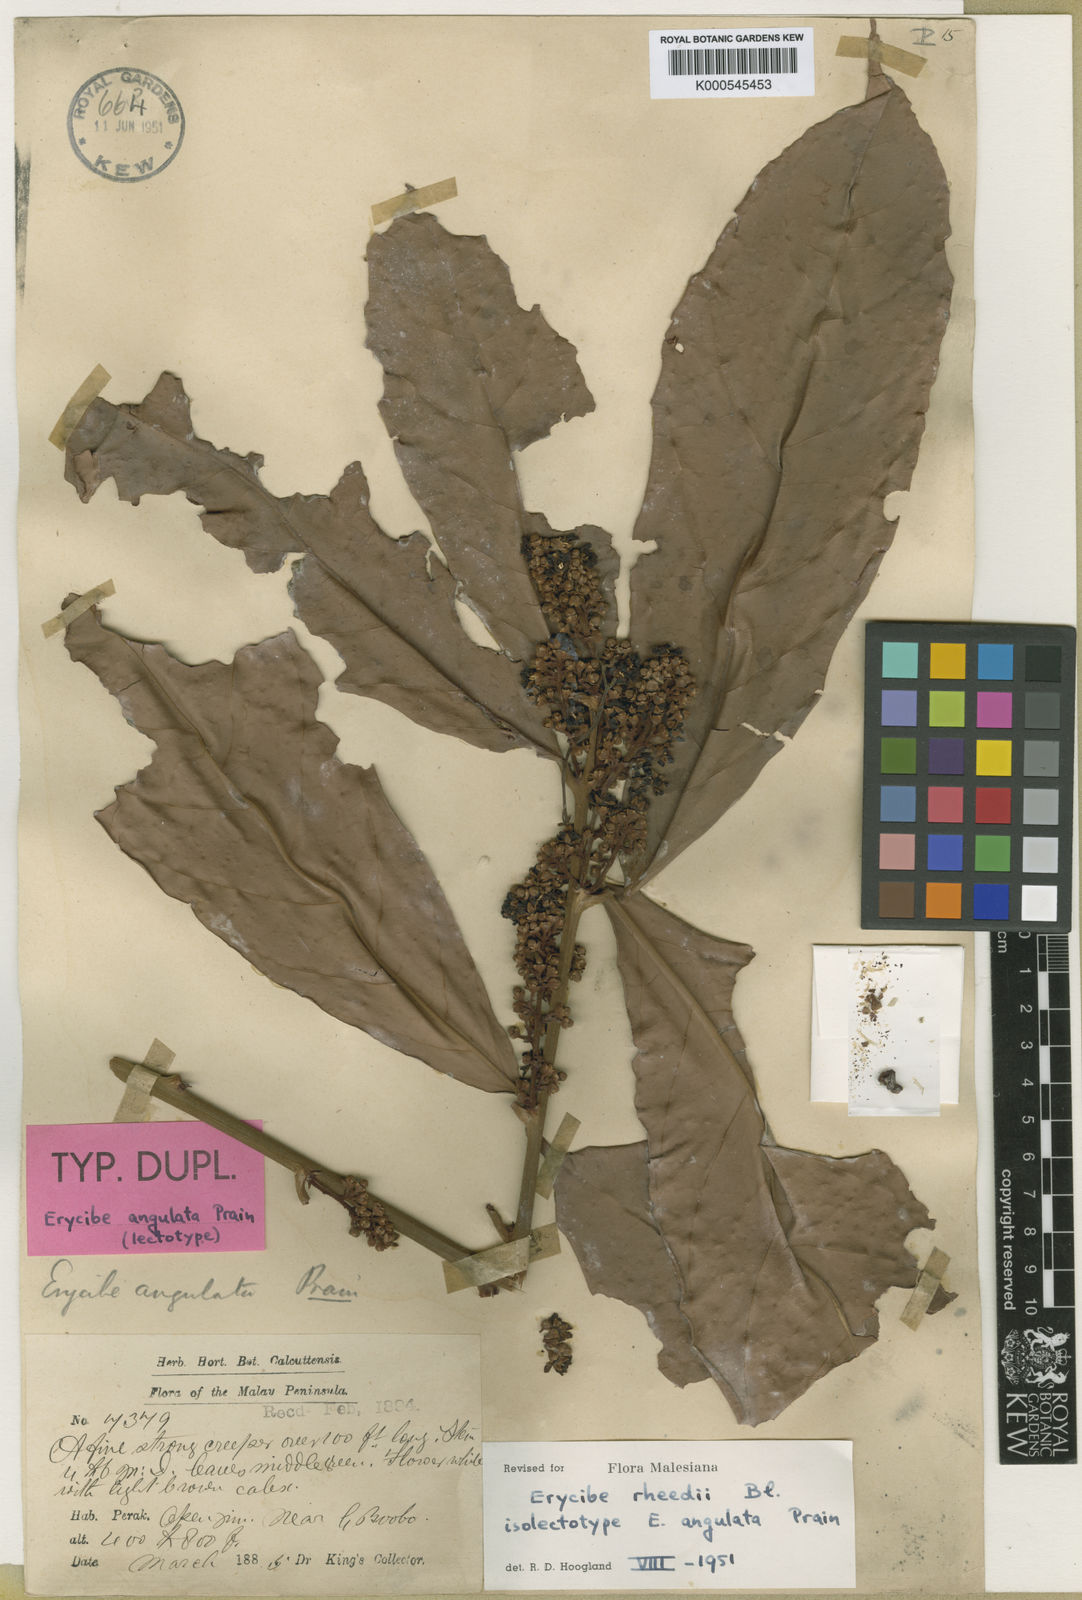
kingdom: Plantae
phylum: Tracheophyta
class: Magnoliopsida
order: Solanales
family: Convolvulaceae
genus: Erycibe
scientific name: Erycibe rheedei
